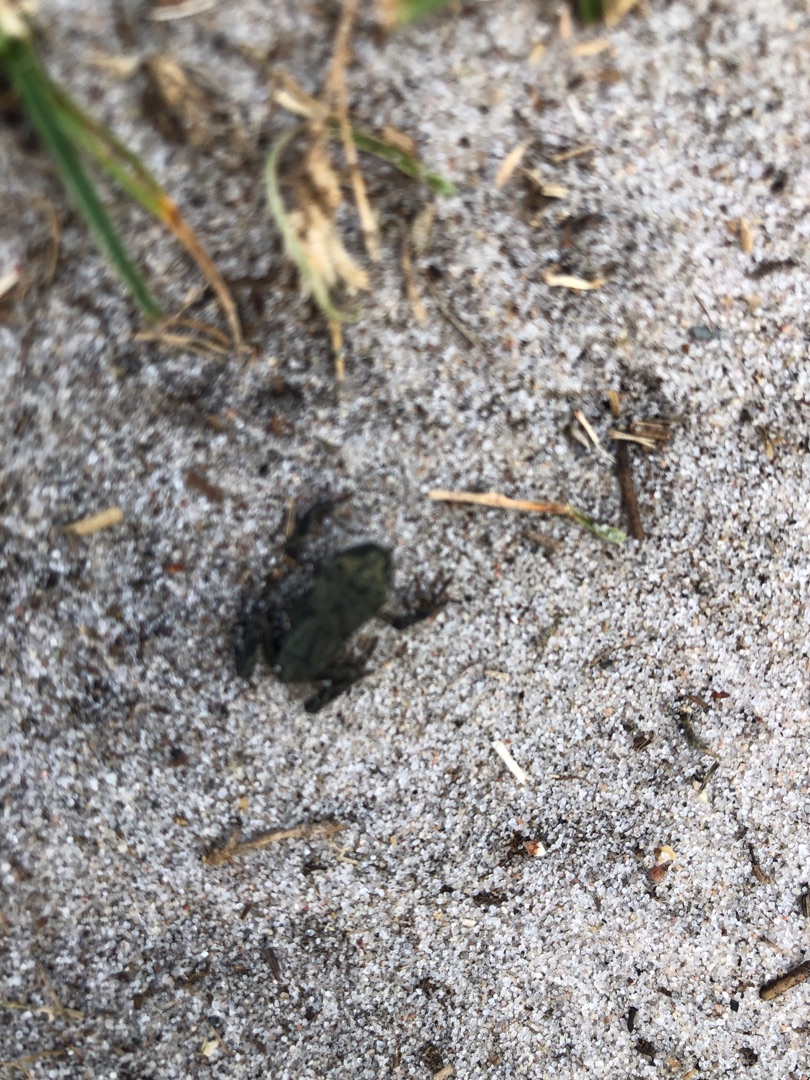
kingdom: Animalia
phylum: Chordata
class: Amphibia
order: Anura
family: Bufonidae
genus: Bufo
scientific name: Bufo bufo
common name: Skrubtudse
